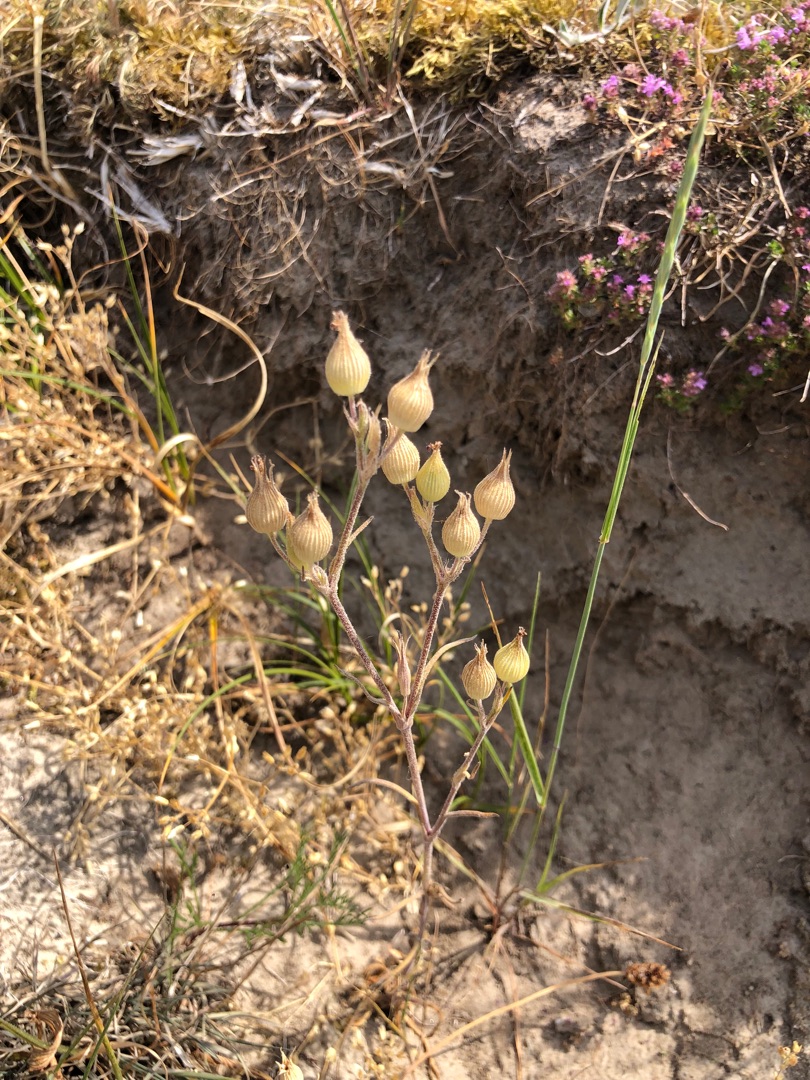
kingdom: Plantae
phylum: Tracheophyta
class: Magnoliopsida
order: Caryophyllales
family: Caryophyllaceae
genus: Silene
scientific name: Silene conica
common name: Kegle-limurt
